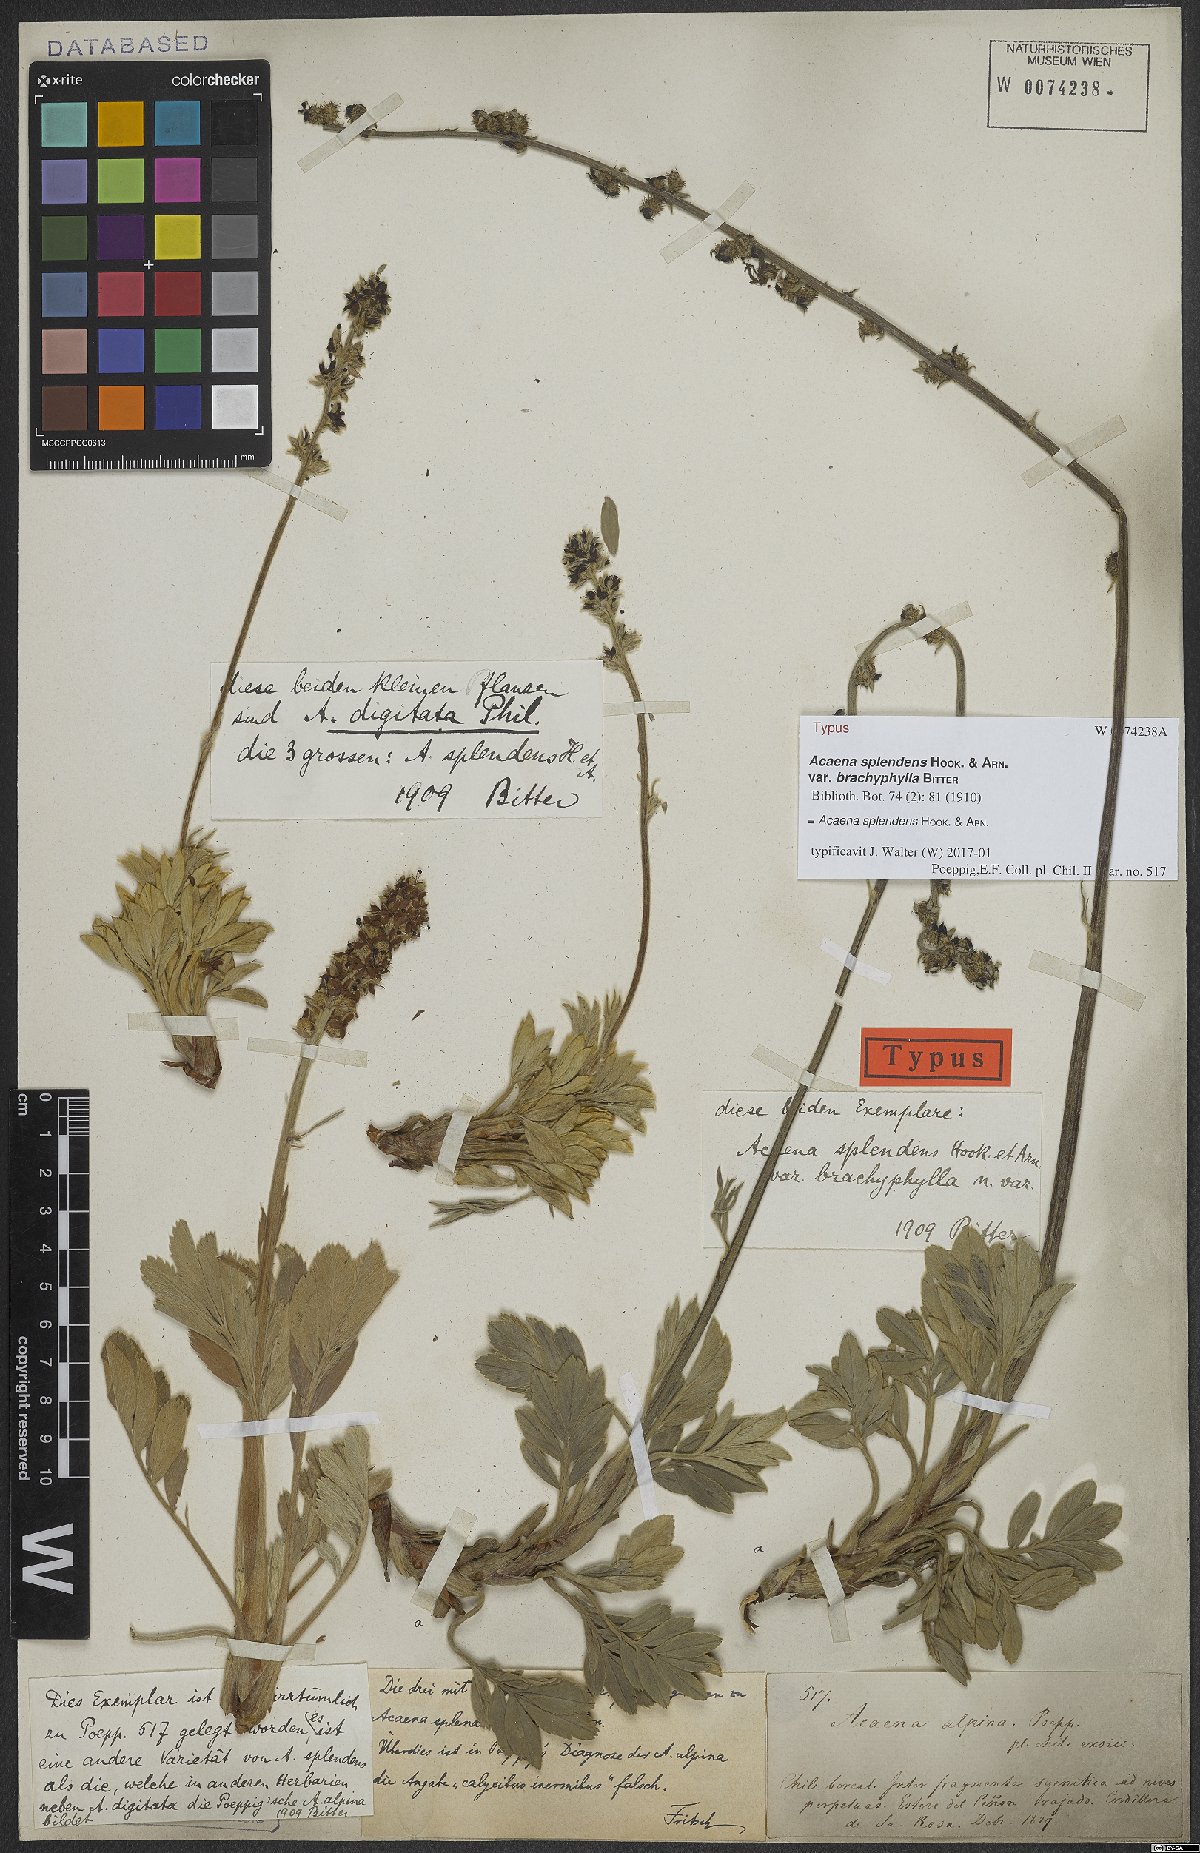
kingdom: Plantae
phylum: Tracheophyta
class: Magnoliopsida
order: Rosales
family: Rosaceae
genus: Acaena
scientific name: Acaena splendens
